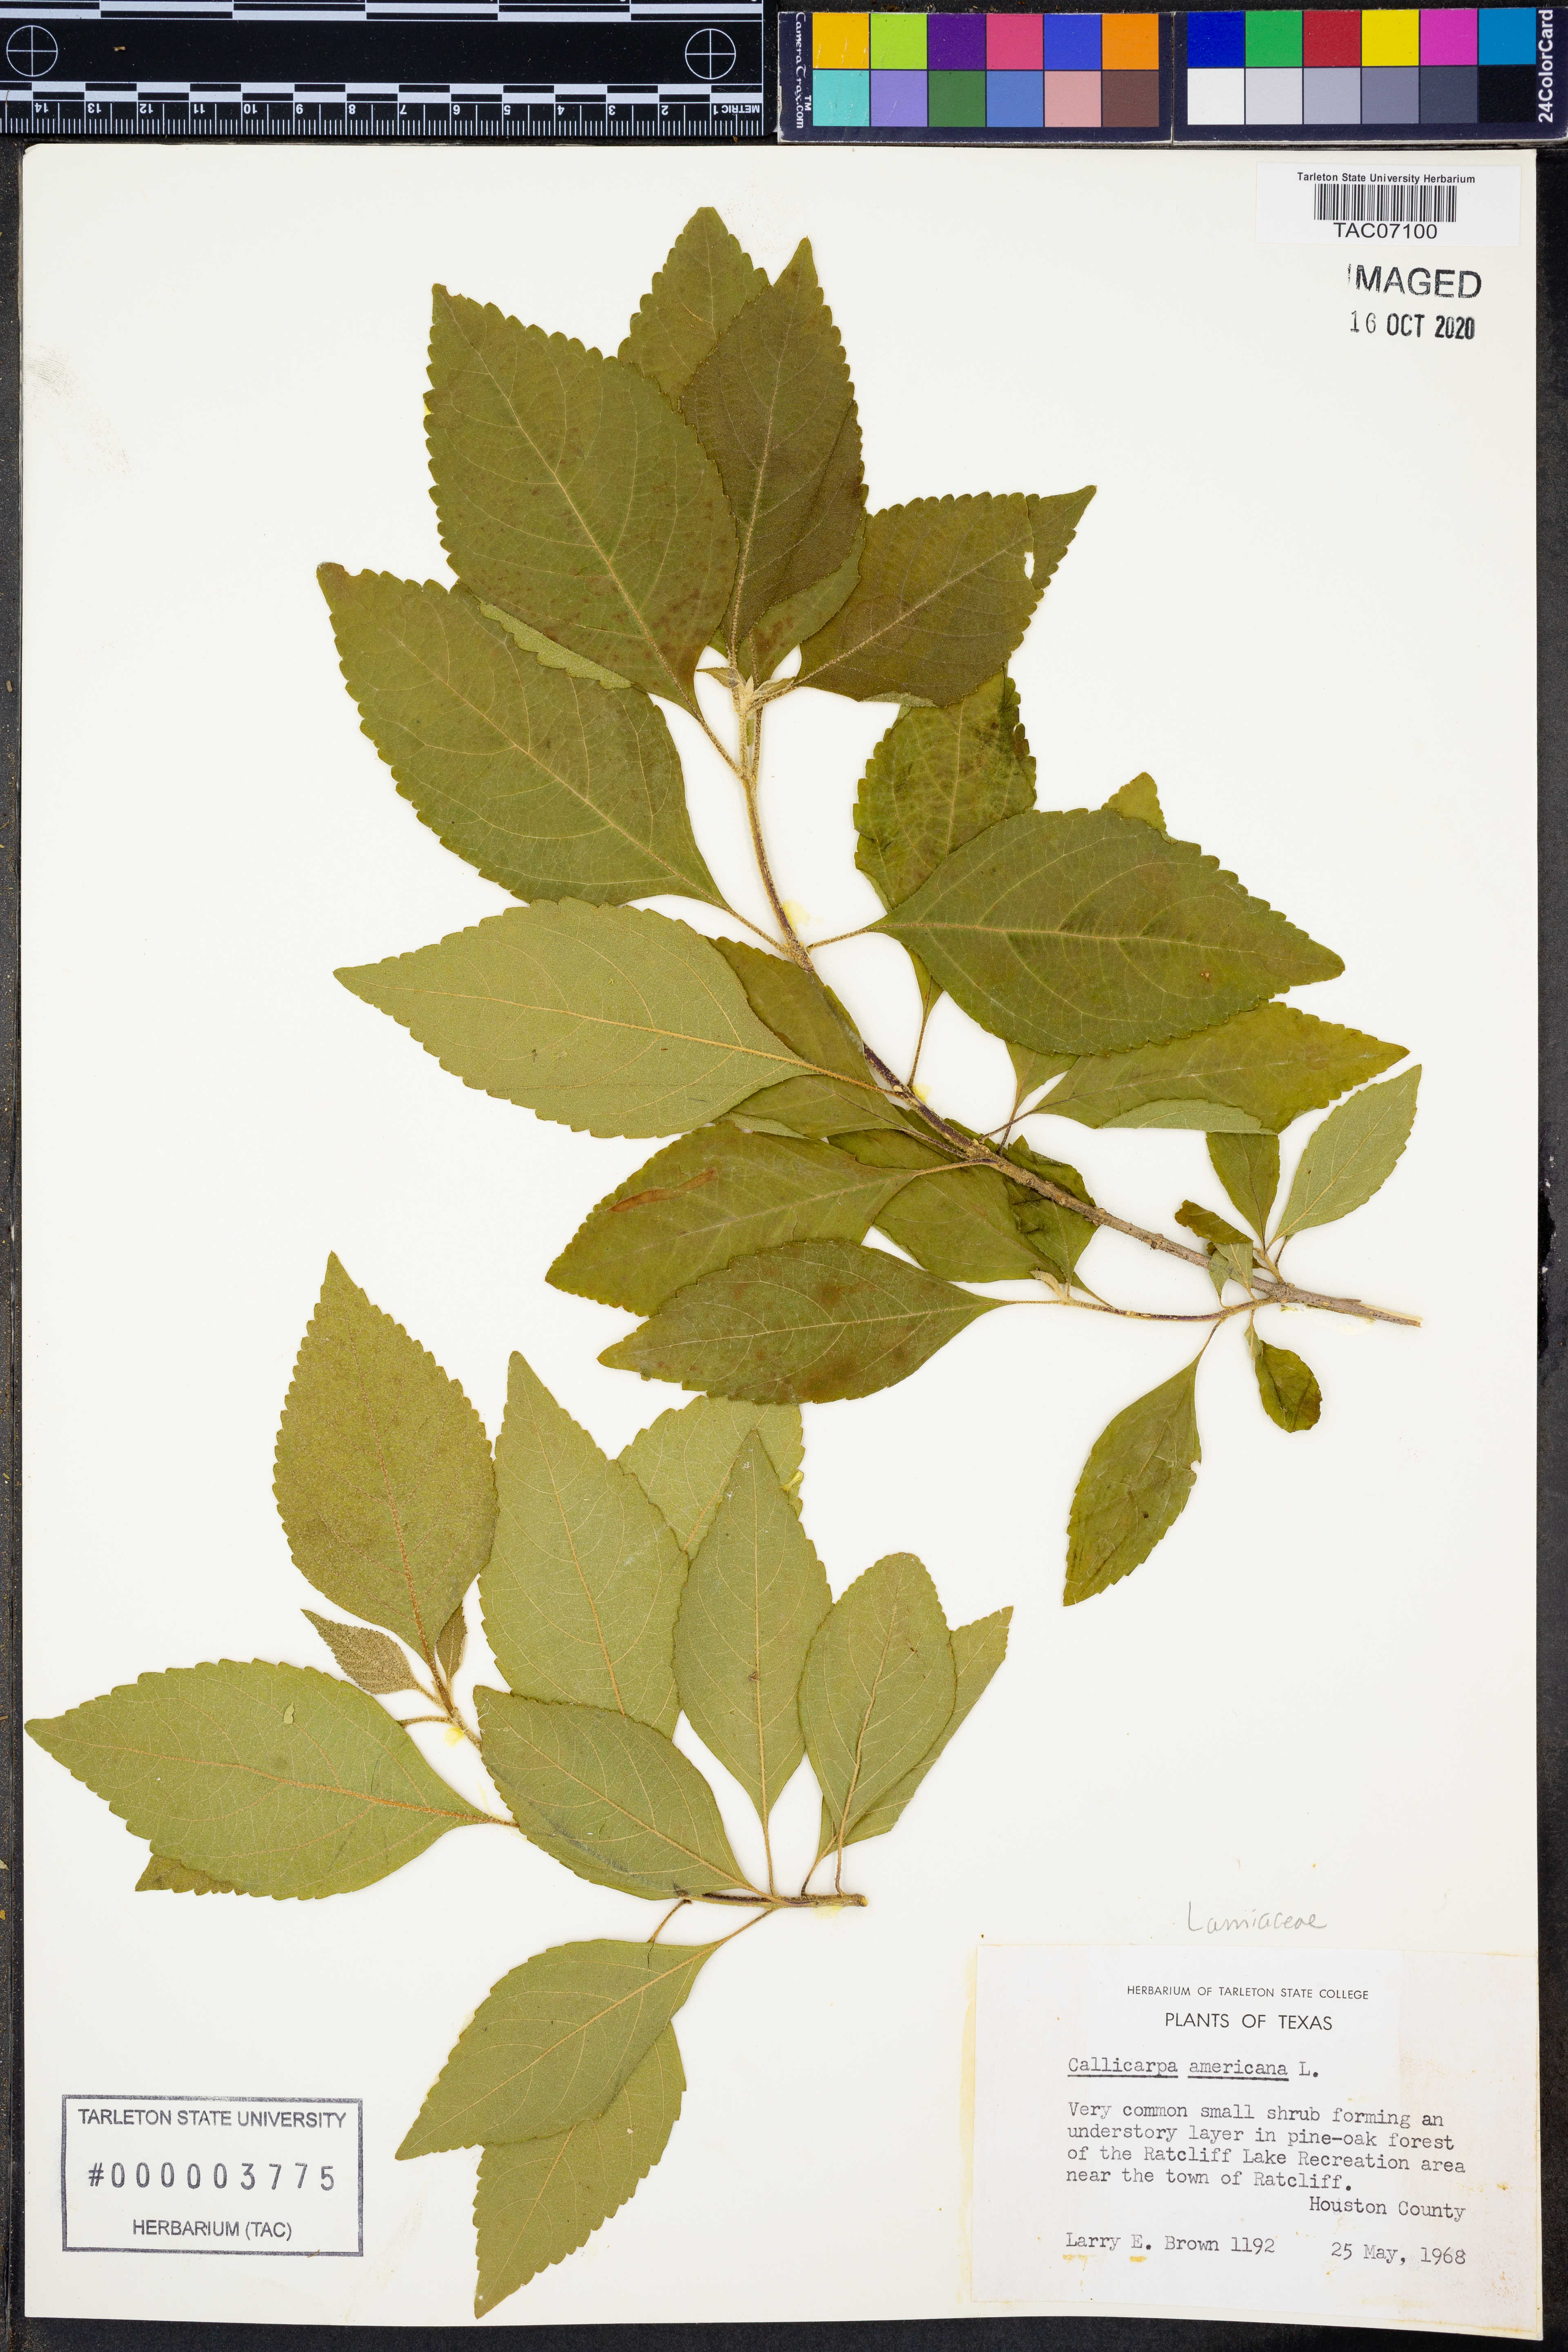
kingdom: Plantae
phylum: Tracheophyta
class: Magnoliopsida
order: Lamiales
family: Lamiaceae
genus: Callicarpa
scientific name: Callicarpa americana
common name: American beautyberry
